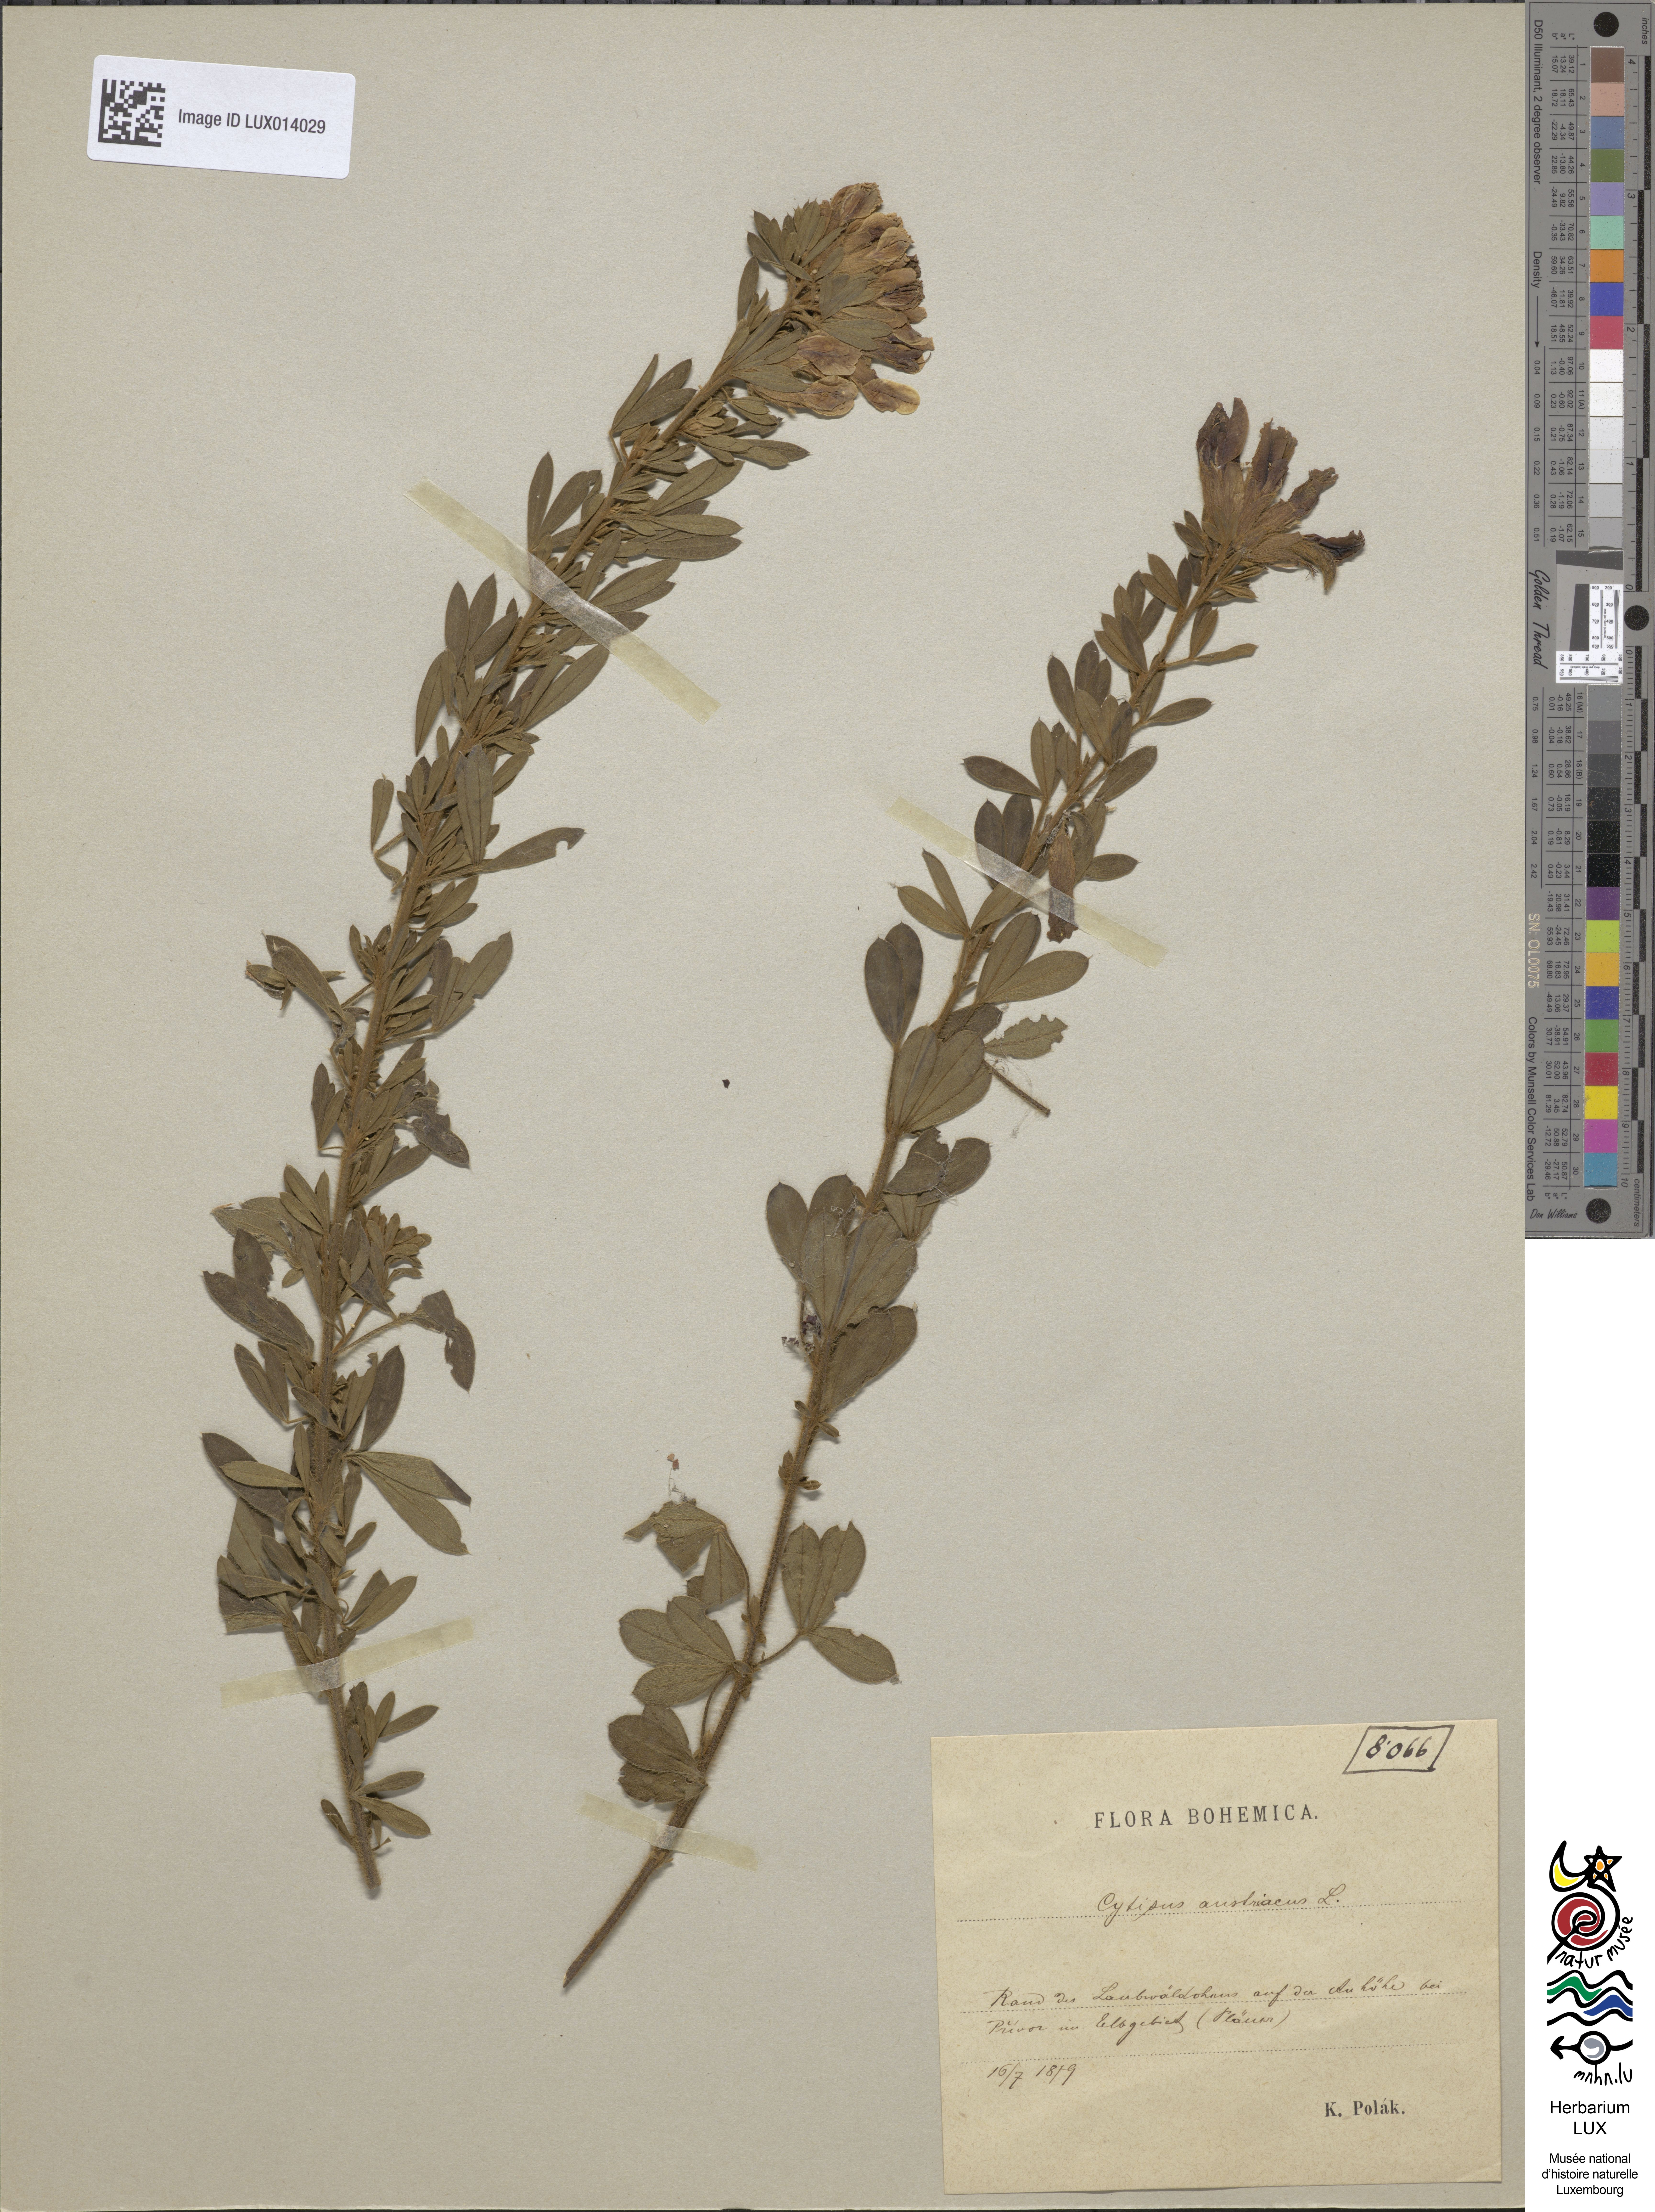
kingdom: Plantae
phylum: Tracheophyta
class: Magnoliopsida
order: Fabales
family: Fabaceae
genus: Chamaecytisus
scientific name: Chamaecytisus austriacus
